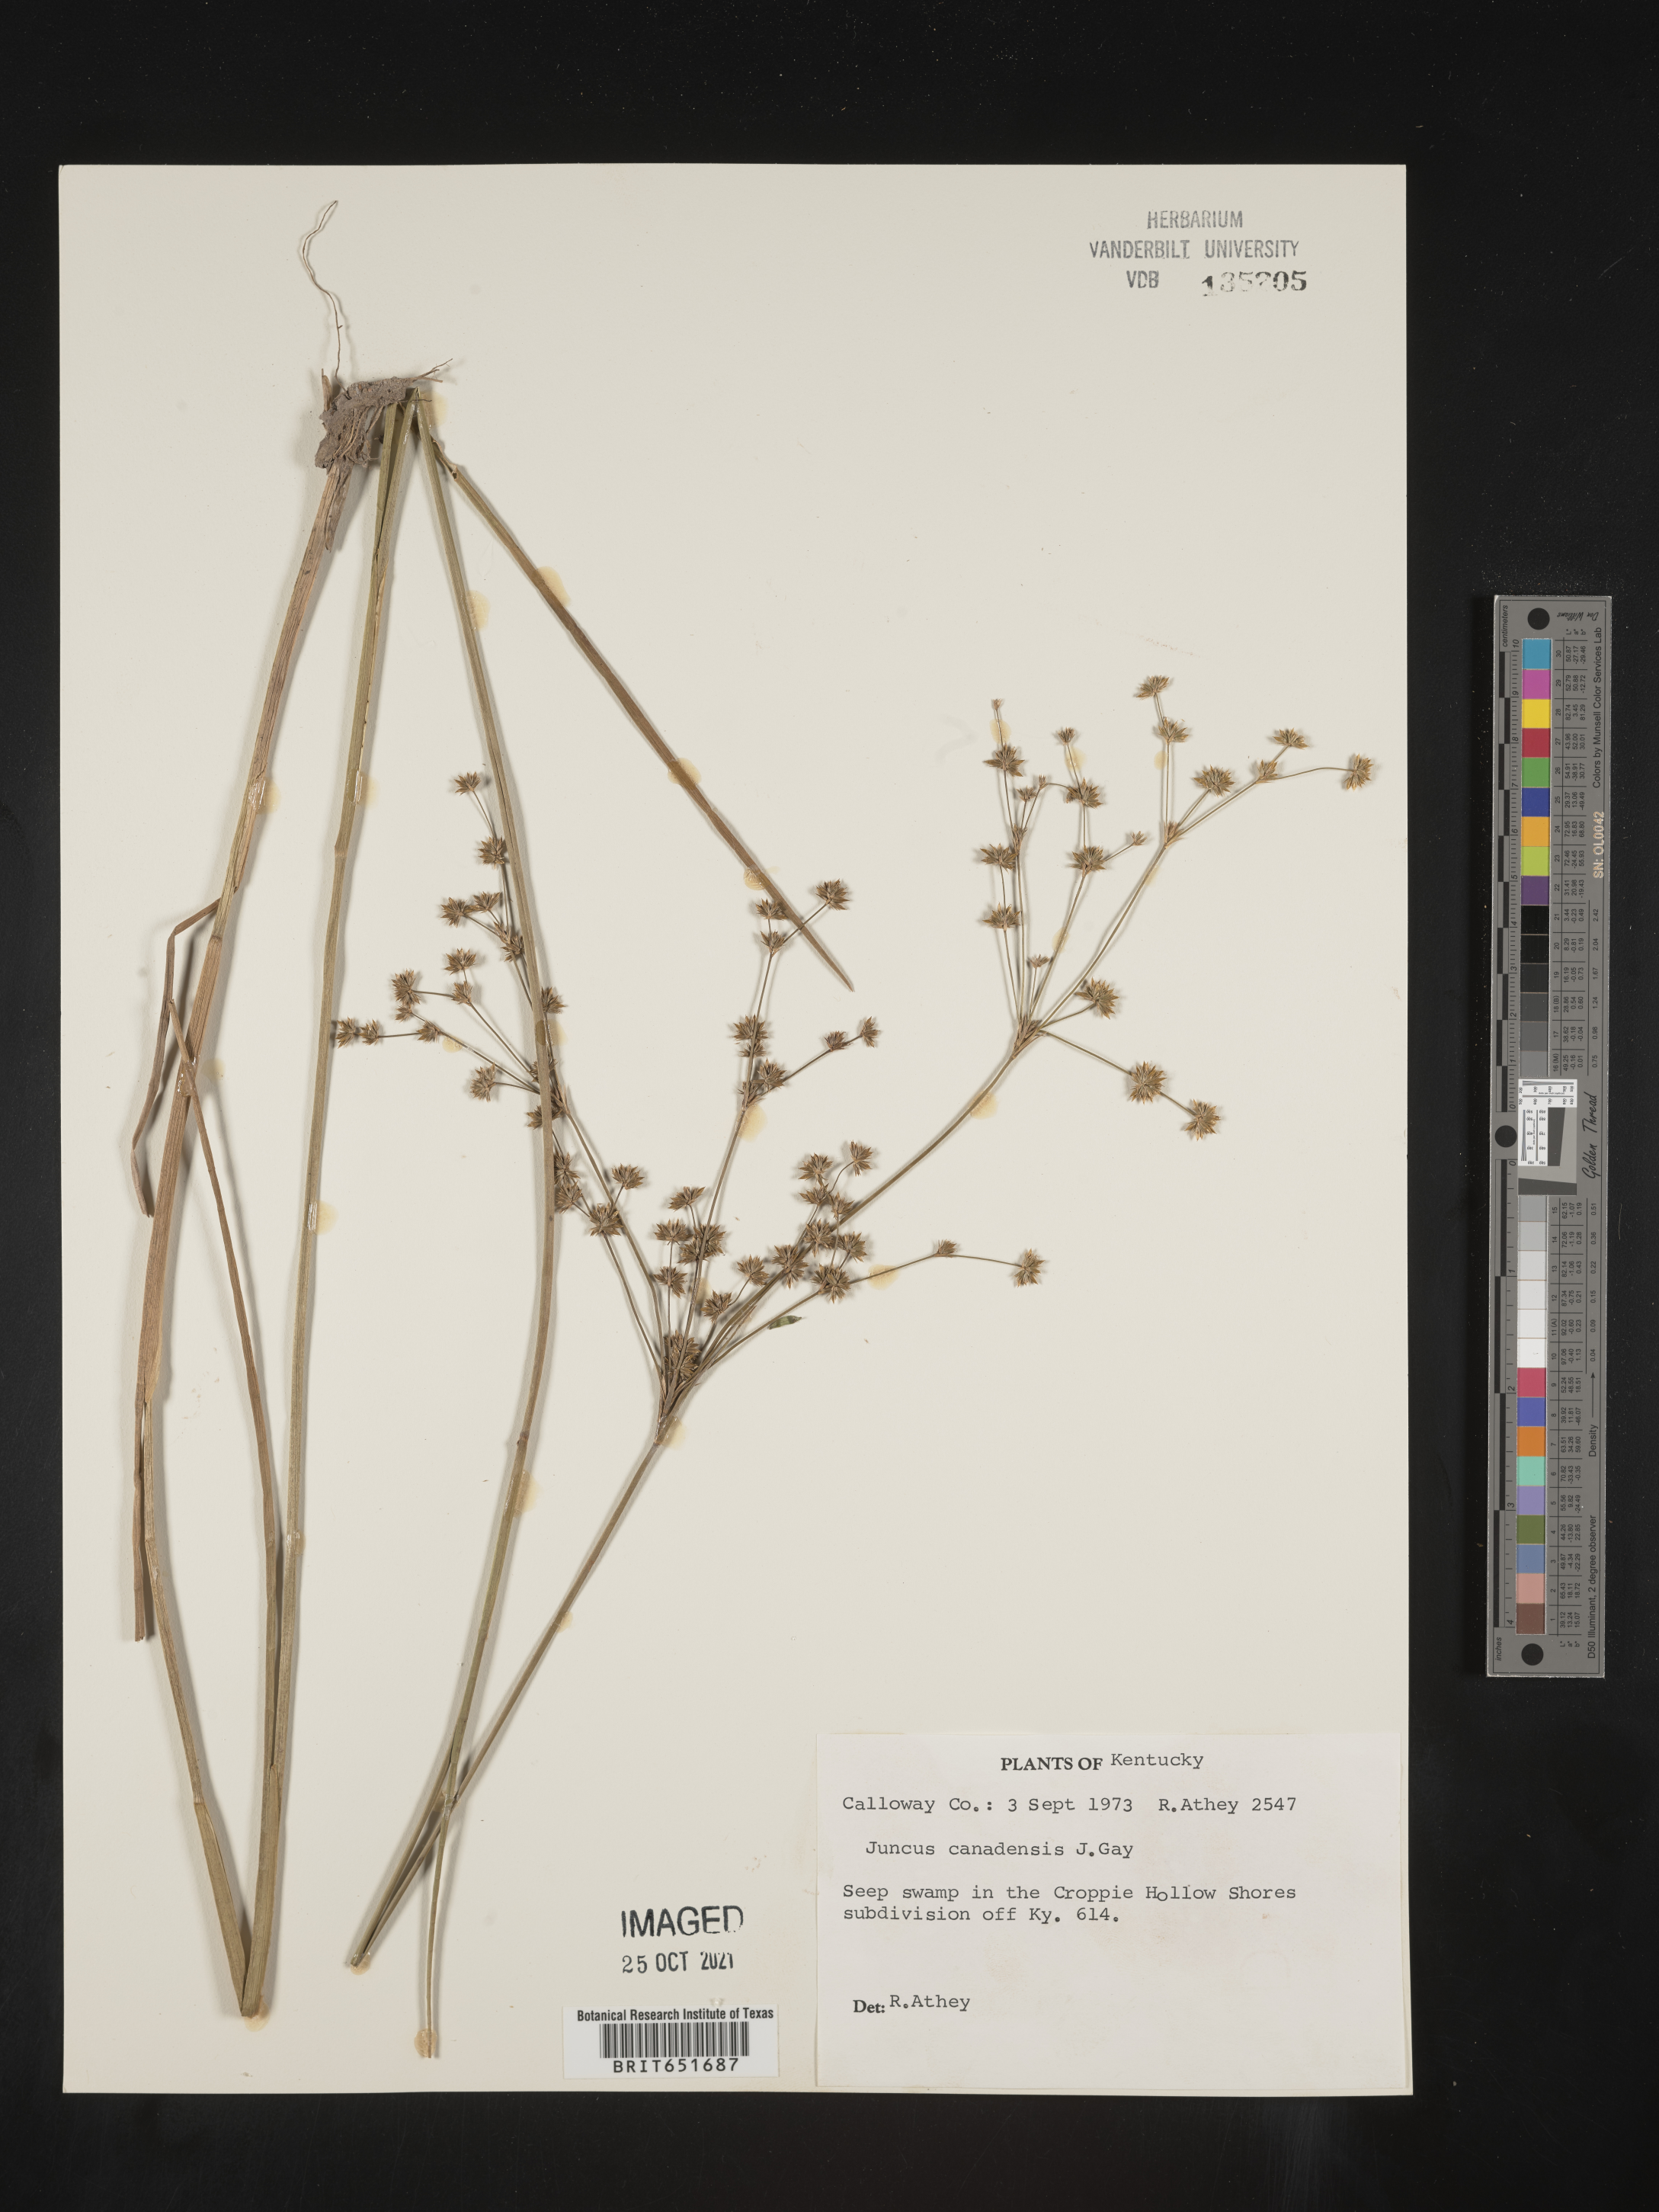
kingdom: Plantae
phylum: Tracheophyta
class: Liliopsida
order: Poales
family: Juncaceae
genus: Juncus
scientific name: Juncus canadensis
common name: Canada rush
